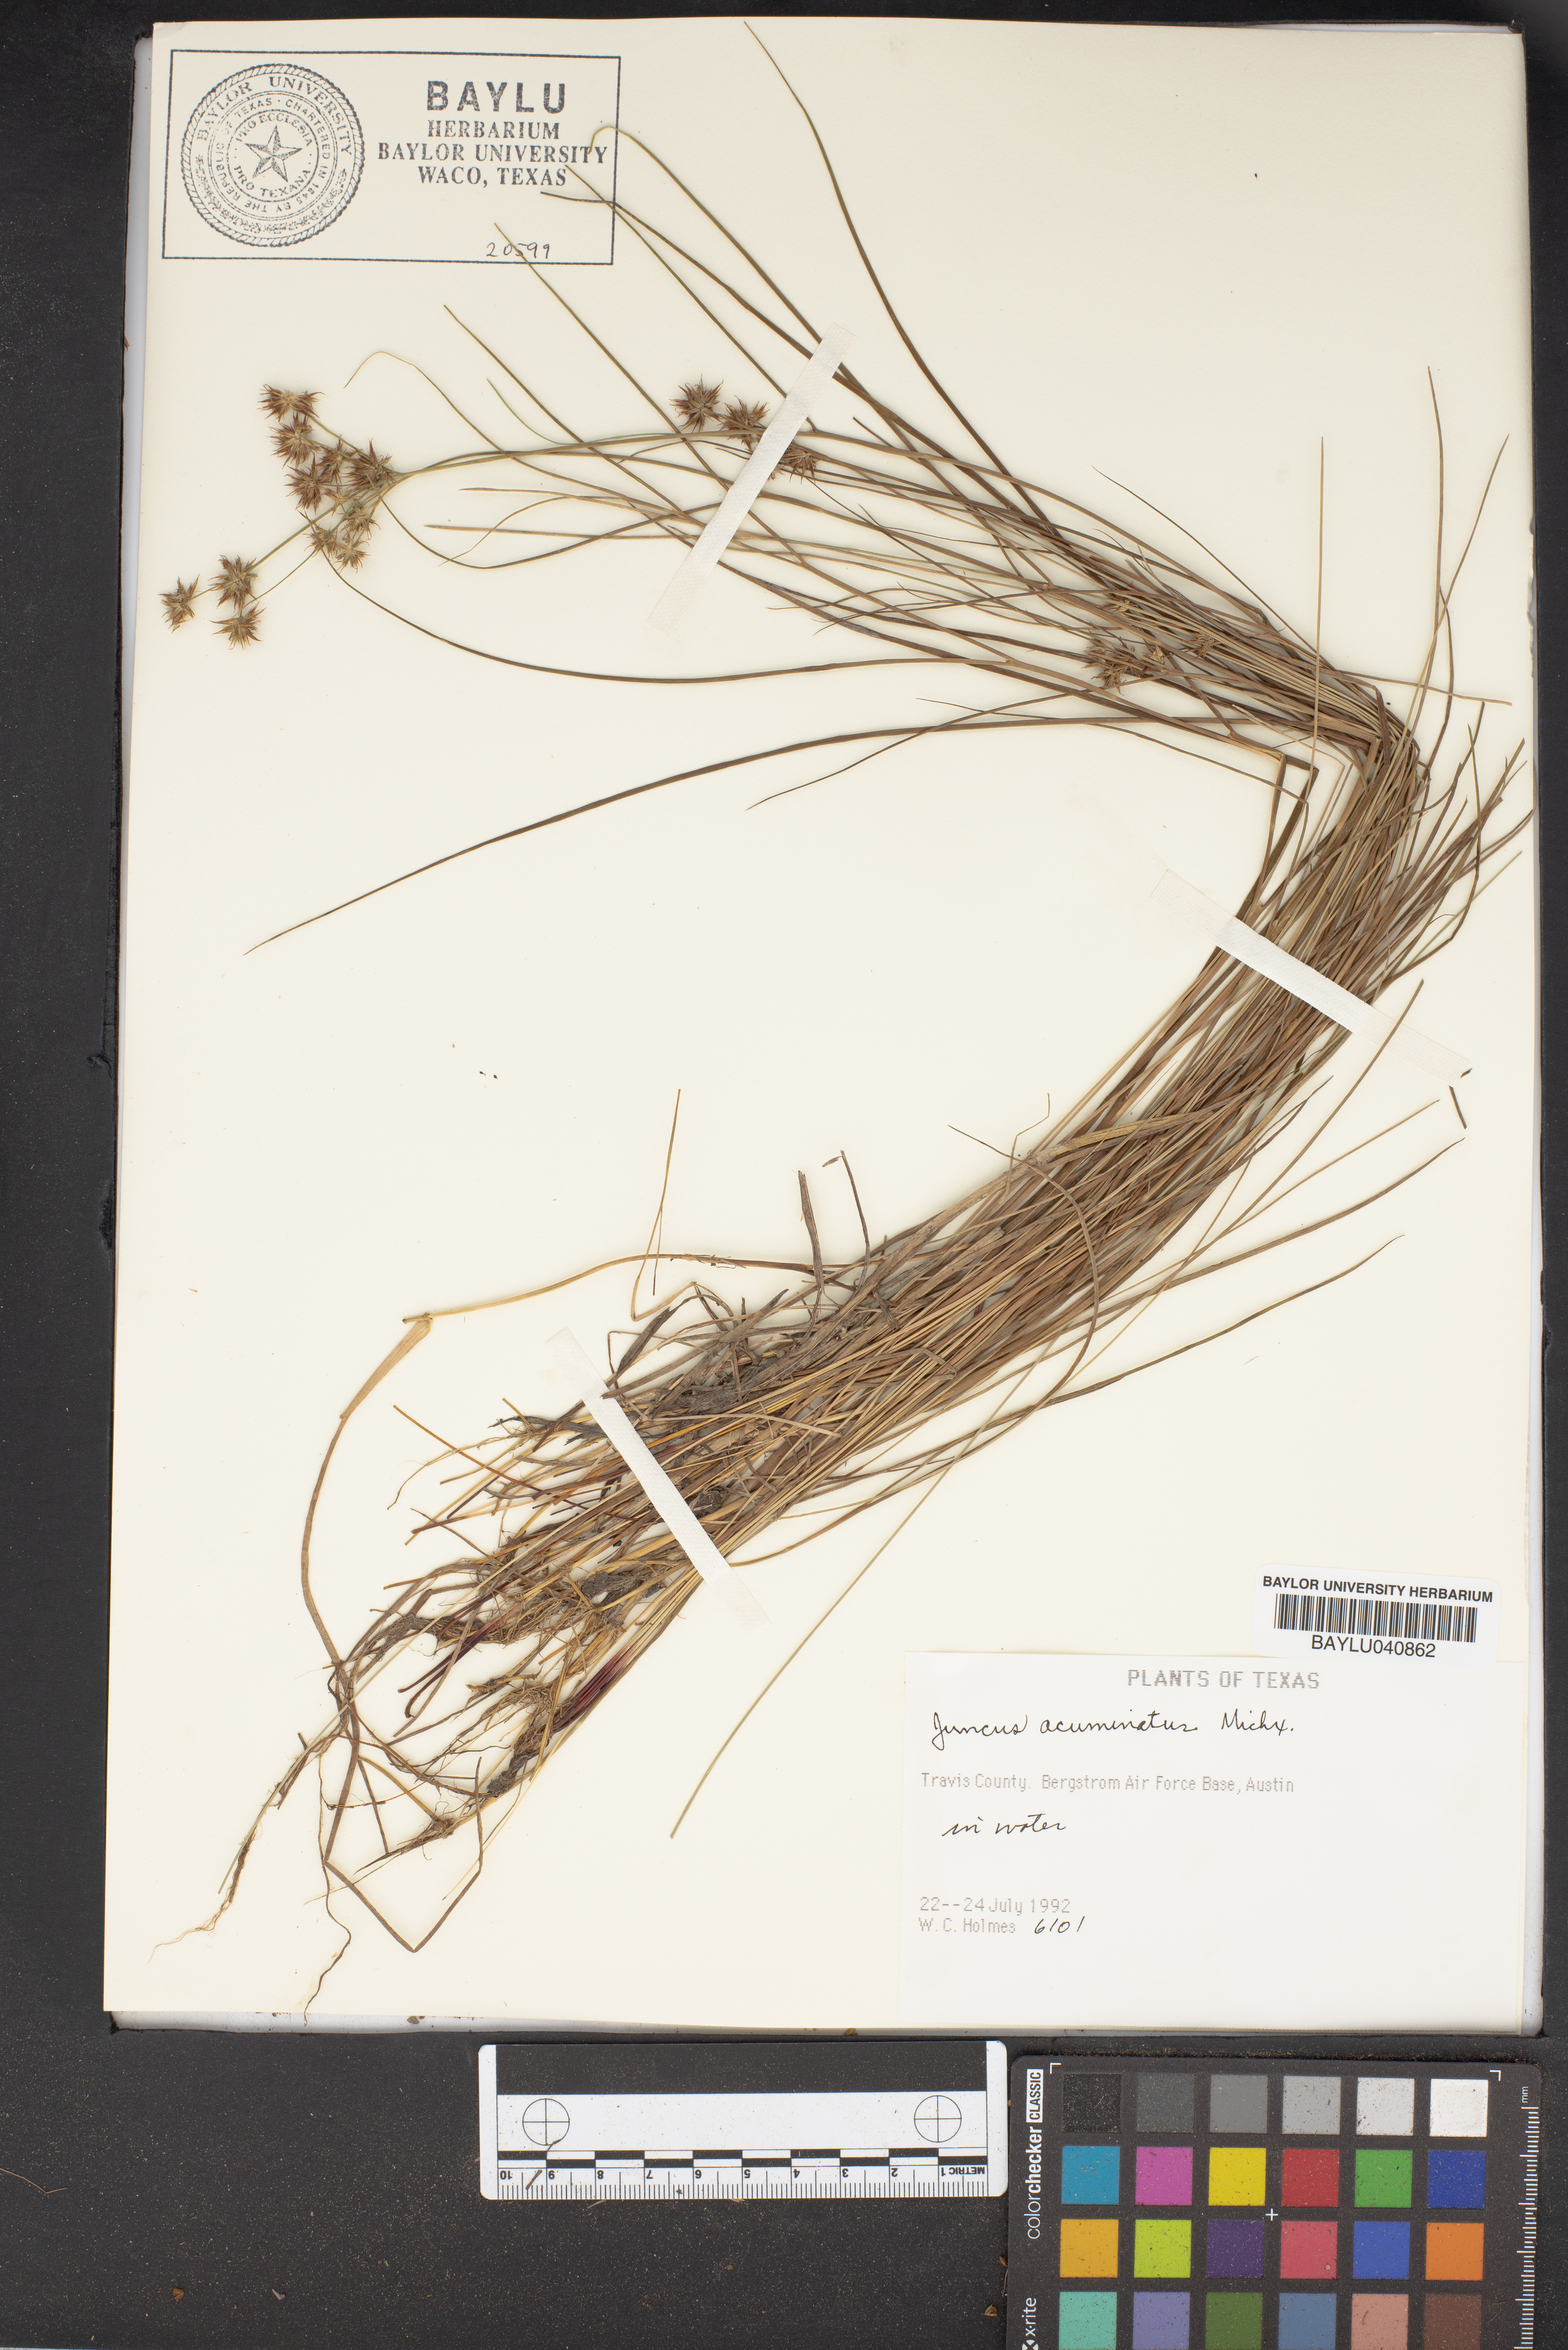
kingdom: Plantae
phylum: Tracheophyta
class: Liliopsida
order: Poales
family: Juncaceae
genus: Juncus
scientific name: Juncus acuminatus
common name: Knotty-leaved rush
